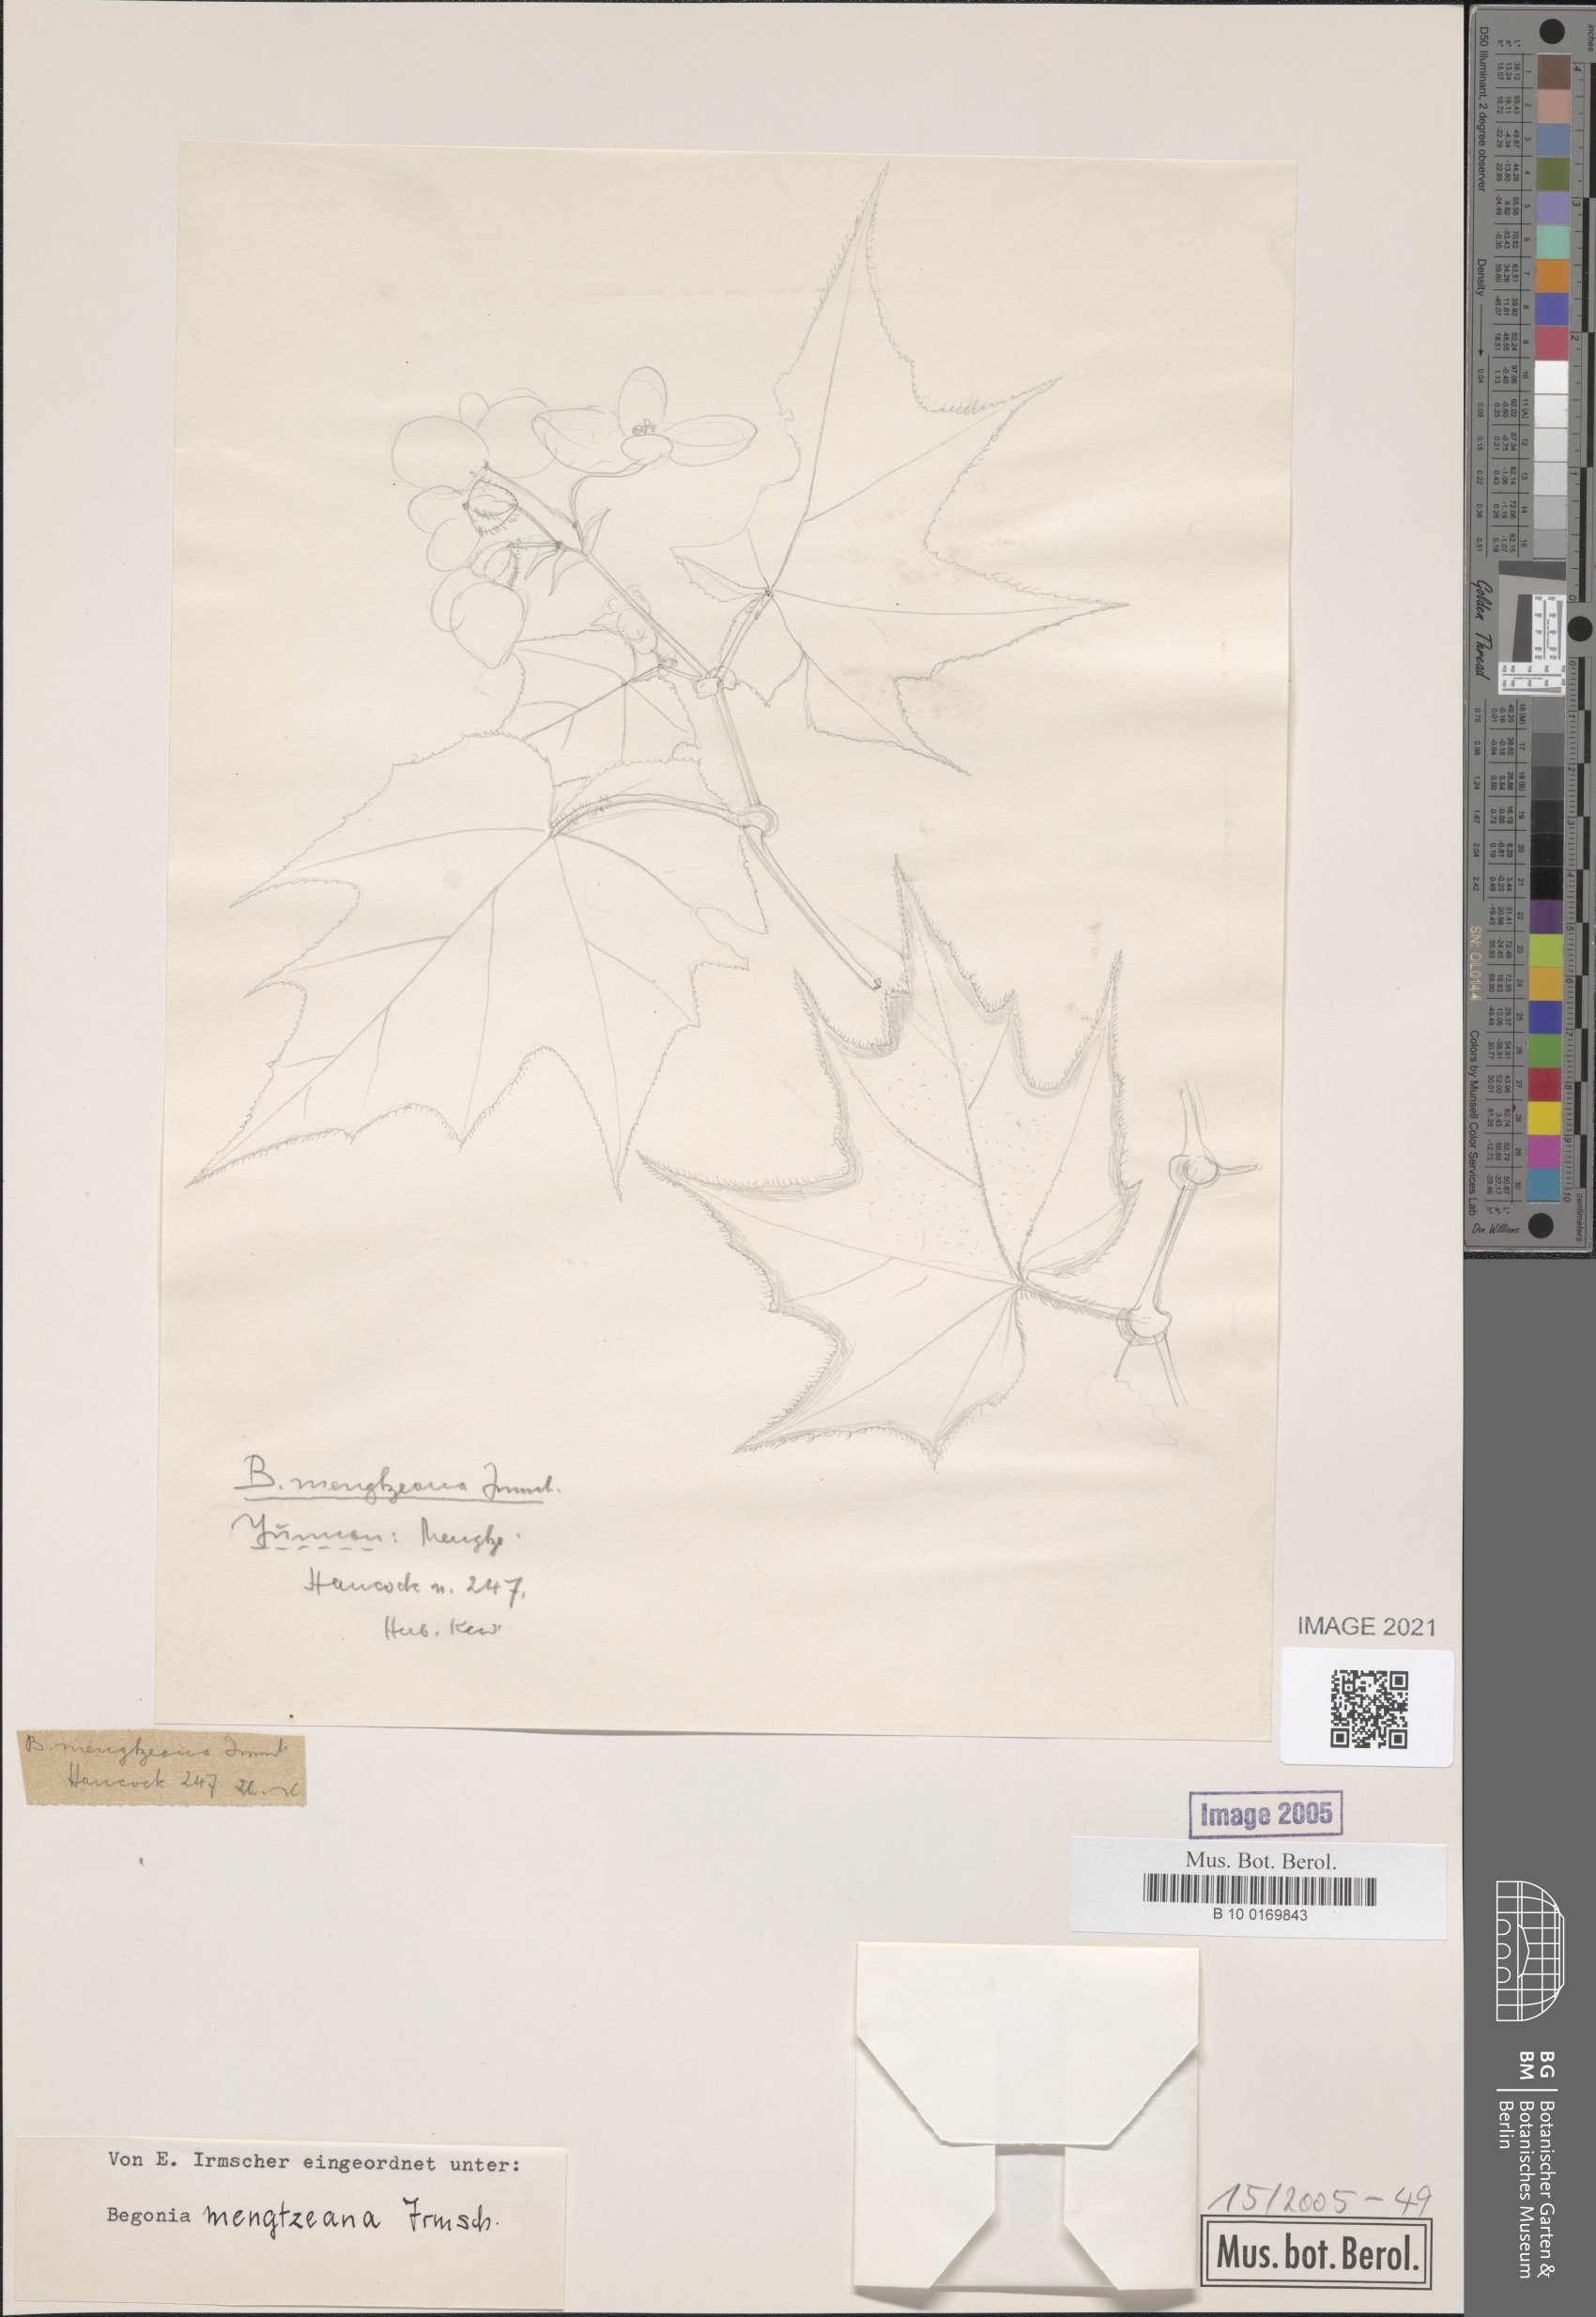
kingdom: Plantae
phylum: Tracheophyta
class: Magnoliopsida
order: Cucurbitales
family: Begoniaceae
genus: Begonia
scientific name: Begonia mengtzeana
